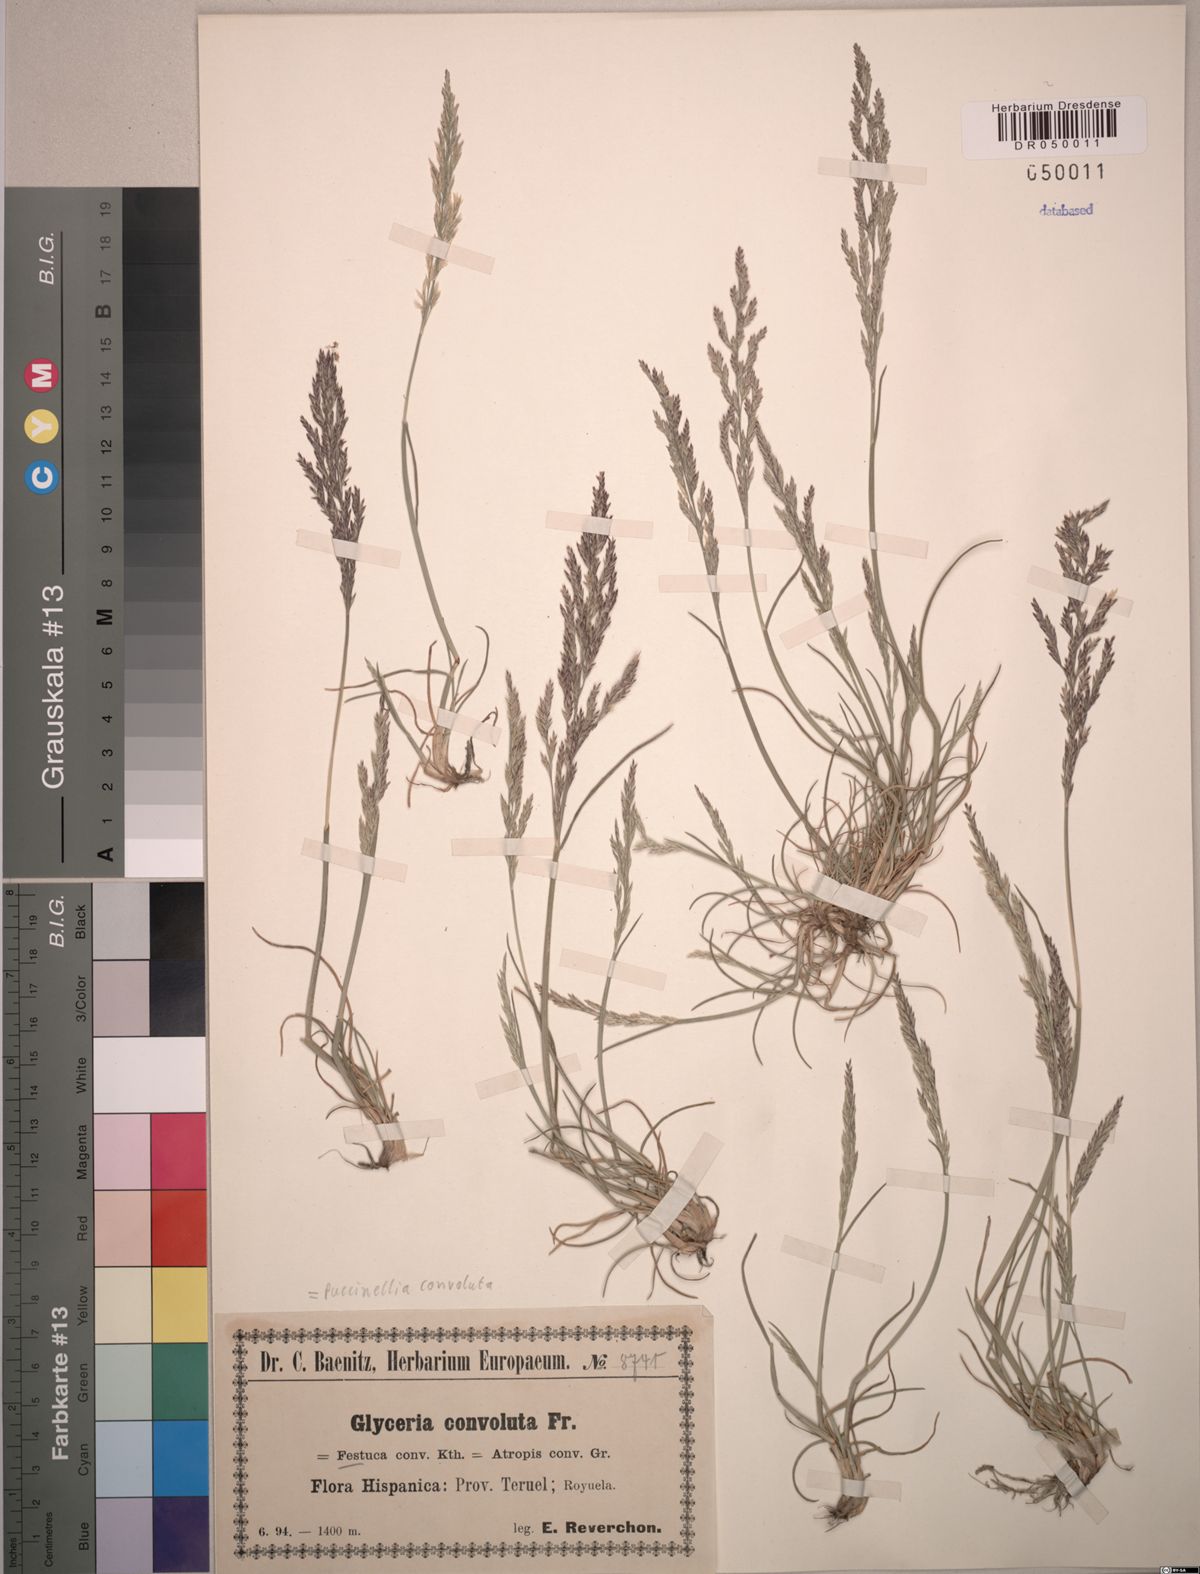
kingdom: Plantae
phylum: Tracheophyta
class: Liliopsida
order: Poales
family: Poaceae
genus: Puccinellia
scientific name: Puccinellia convoluta
